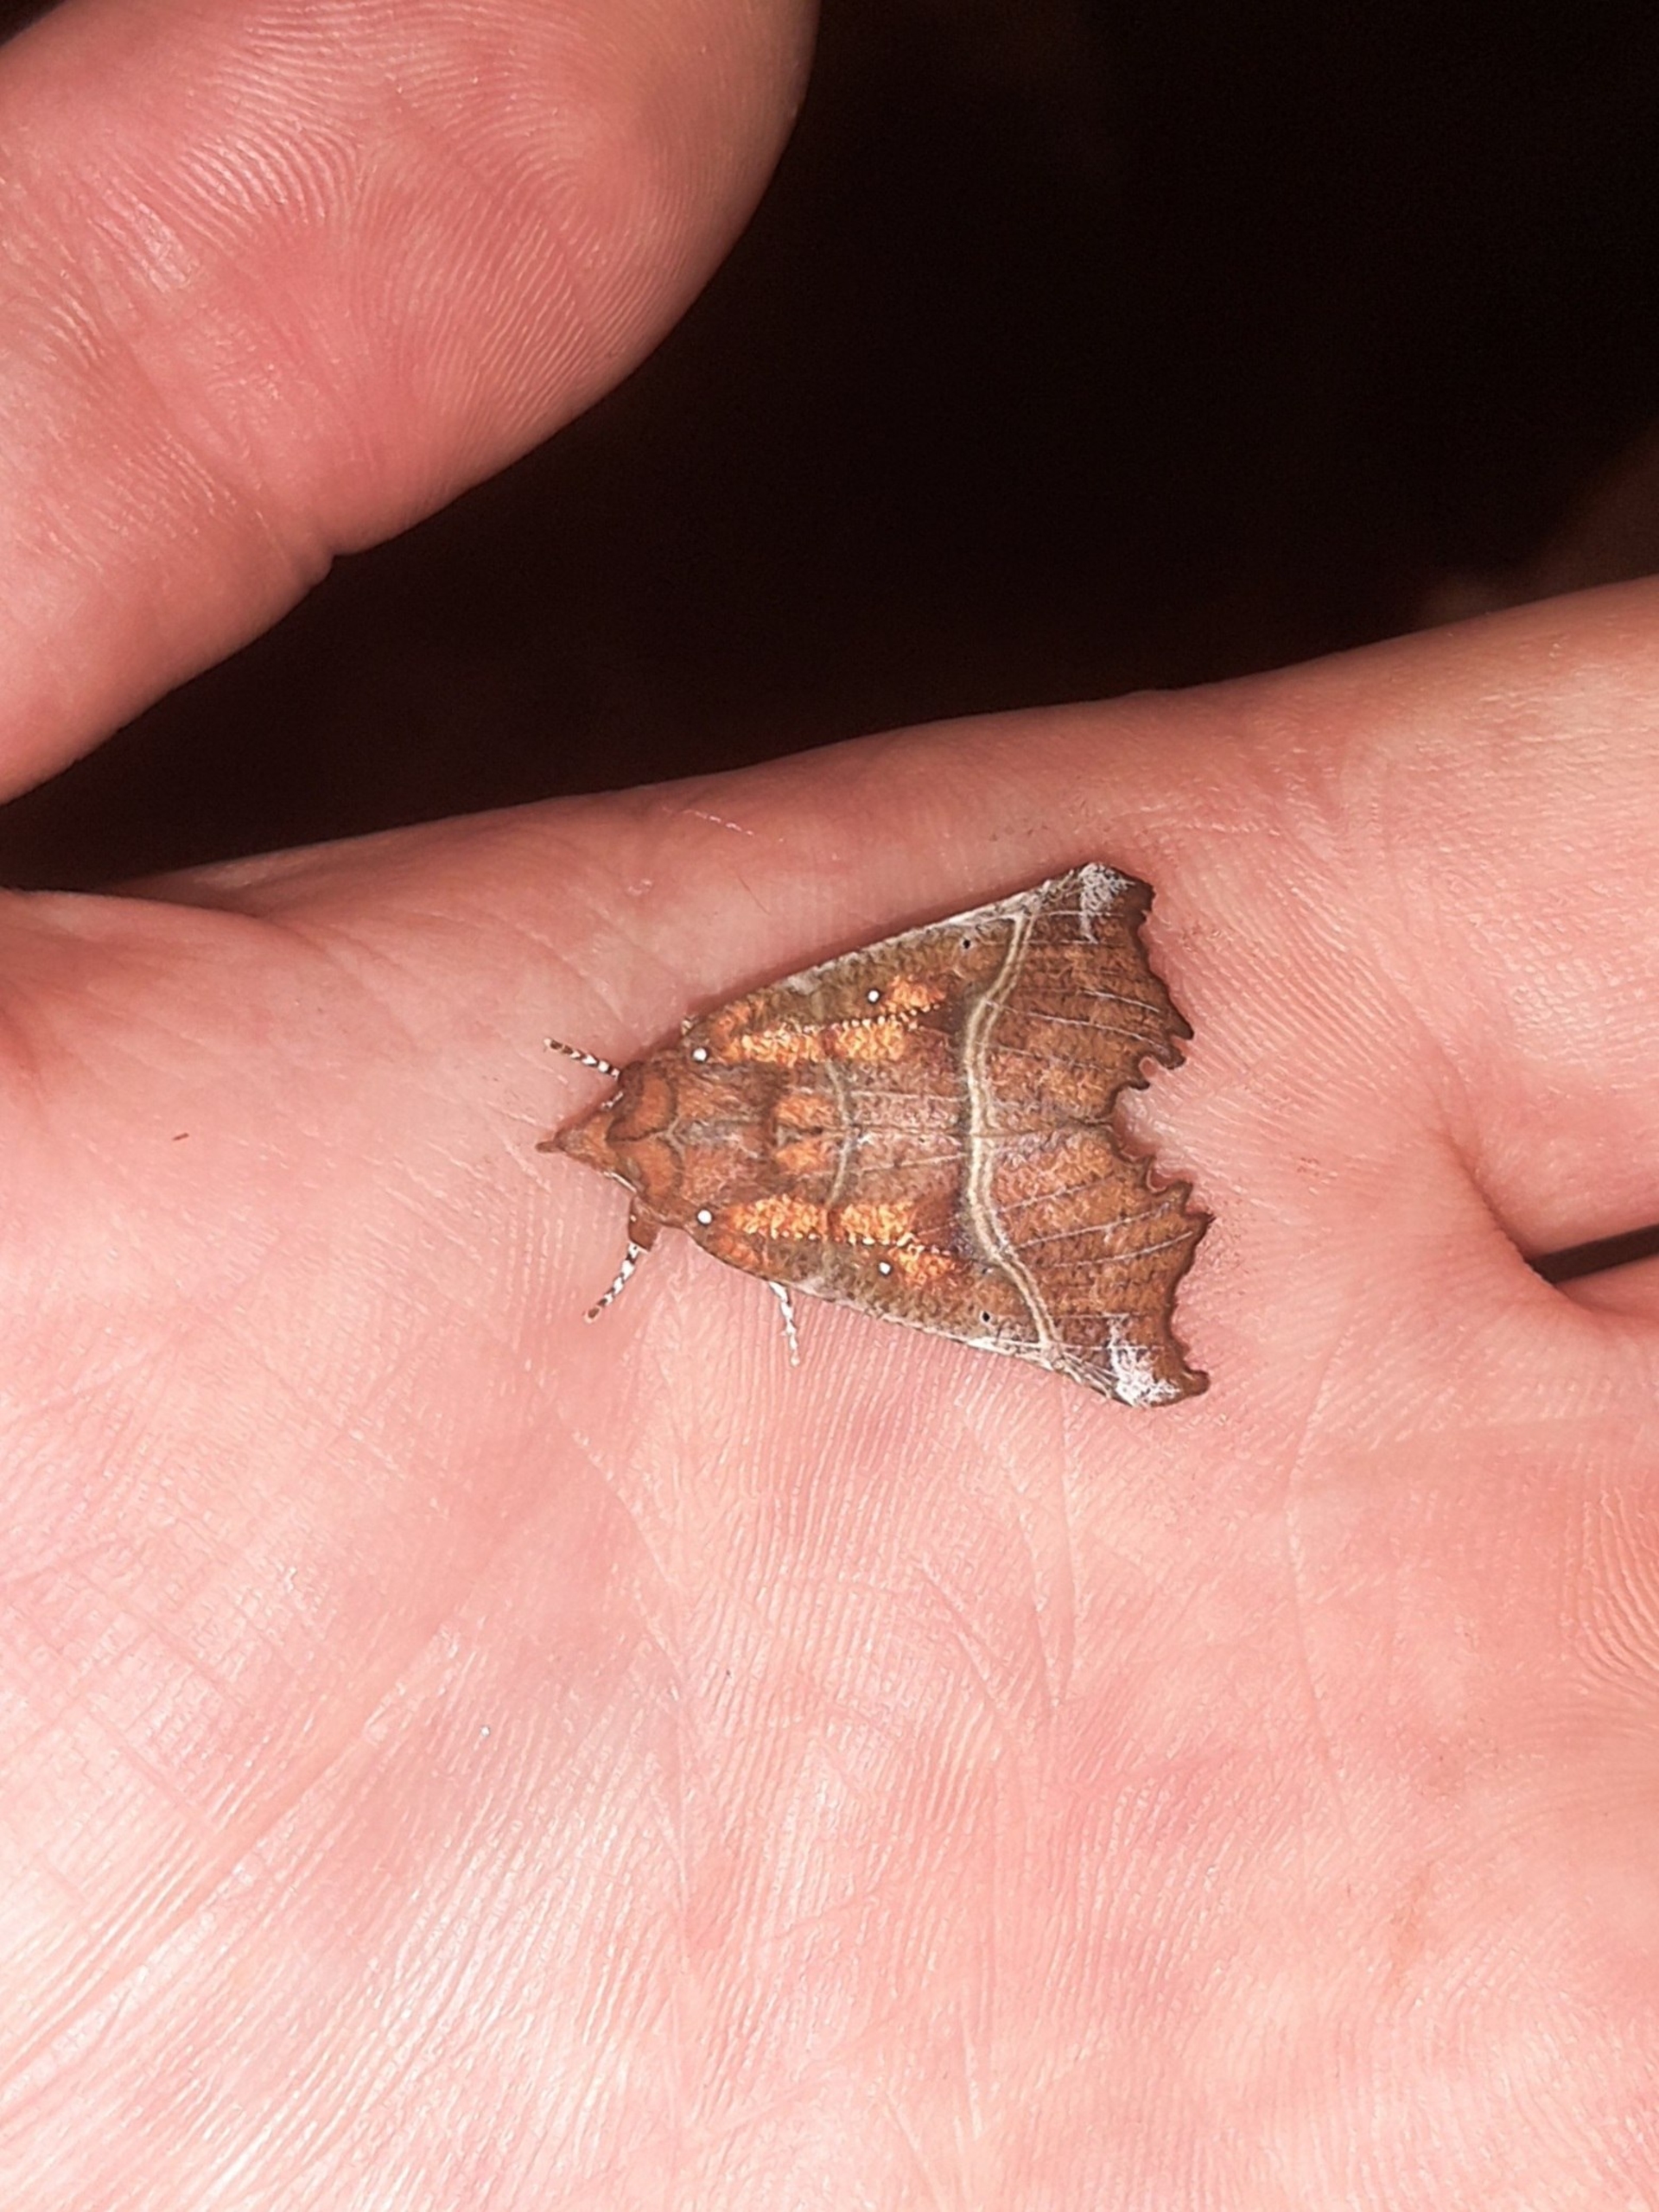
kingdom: Animalia
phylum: Arthropoda
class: Insecta
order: Lepidoptera
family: Erebidae
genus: Scoliopteryx
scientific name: Scoliopteryx libatrix
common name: Husmoderugle
